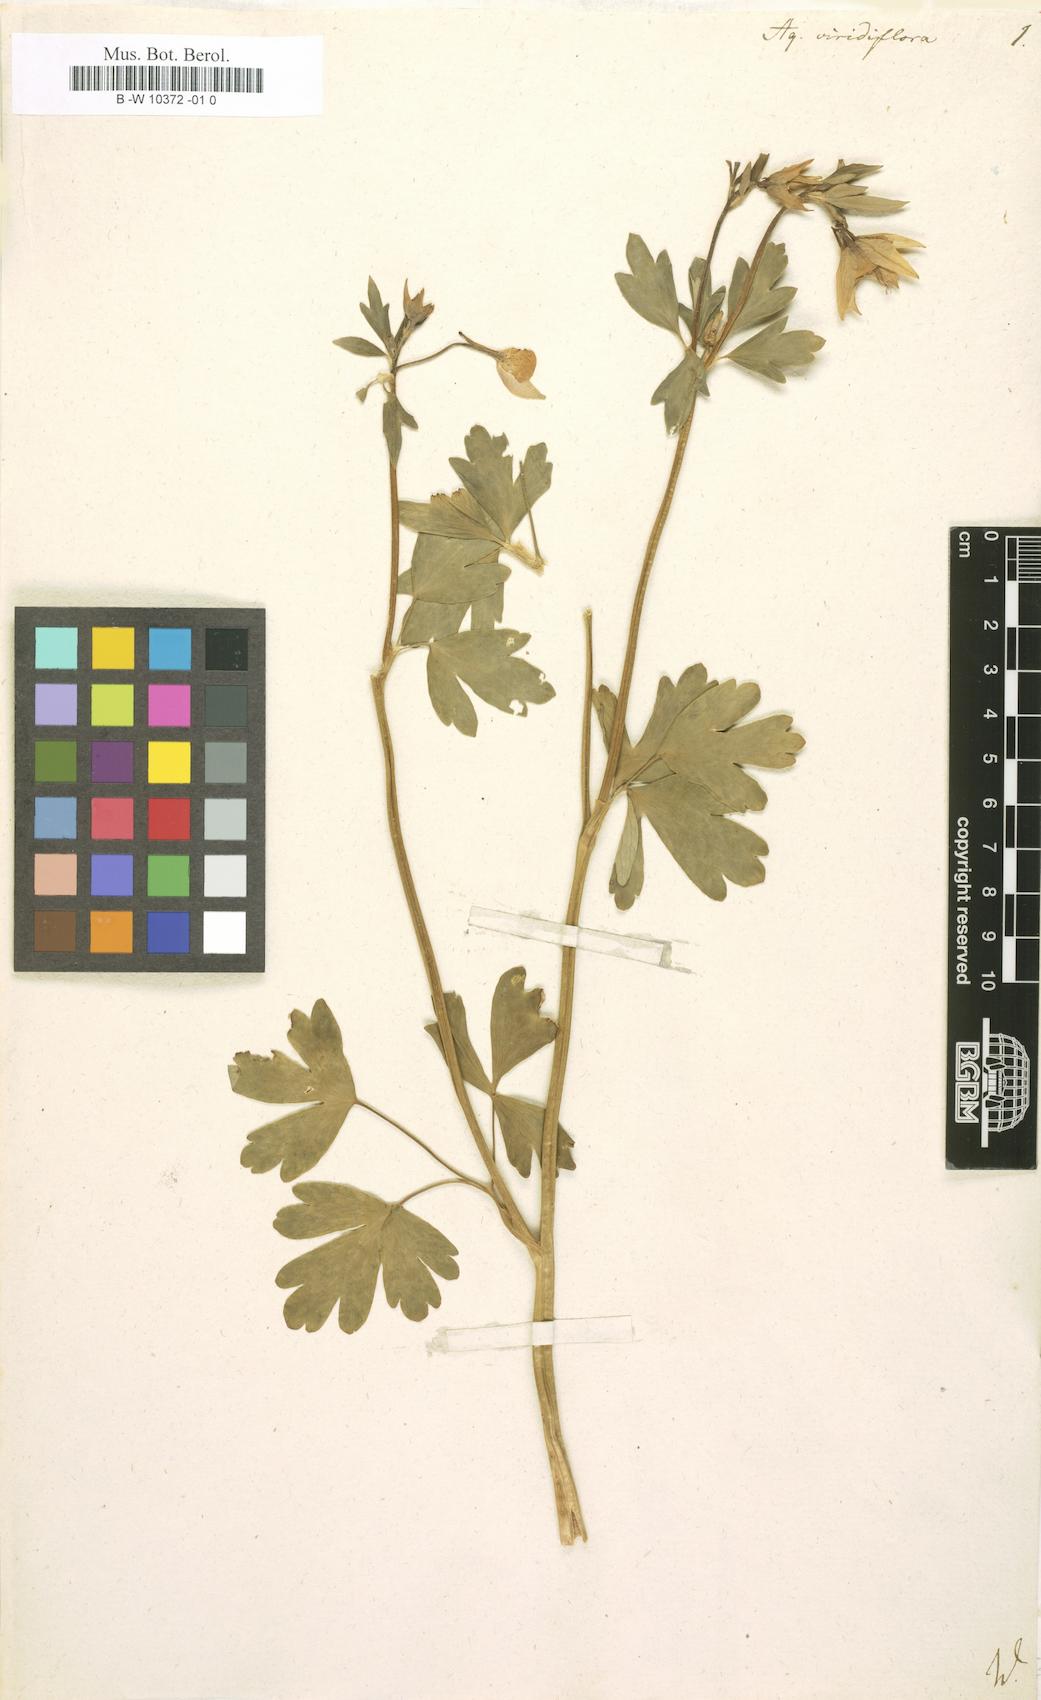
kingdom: Plantae
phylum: Tracheophyta
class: Magnoliopsida
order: Ranunculales
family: Ranunculaceae
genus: Aquilegia
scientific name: Aquilegia viridiflora
